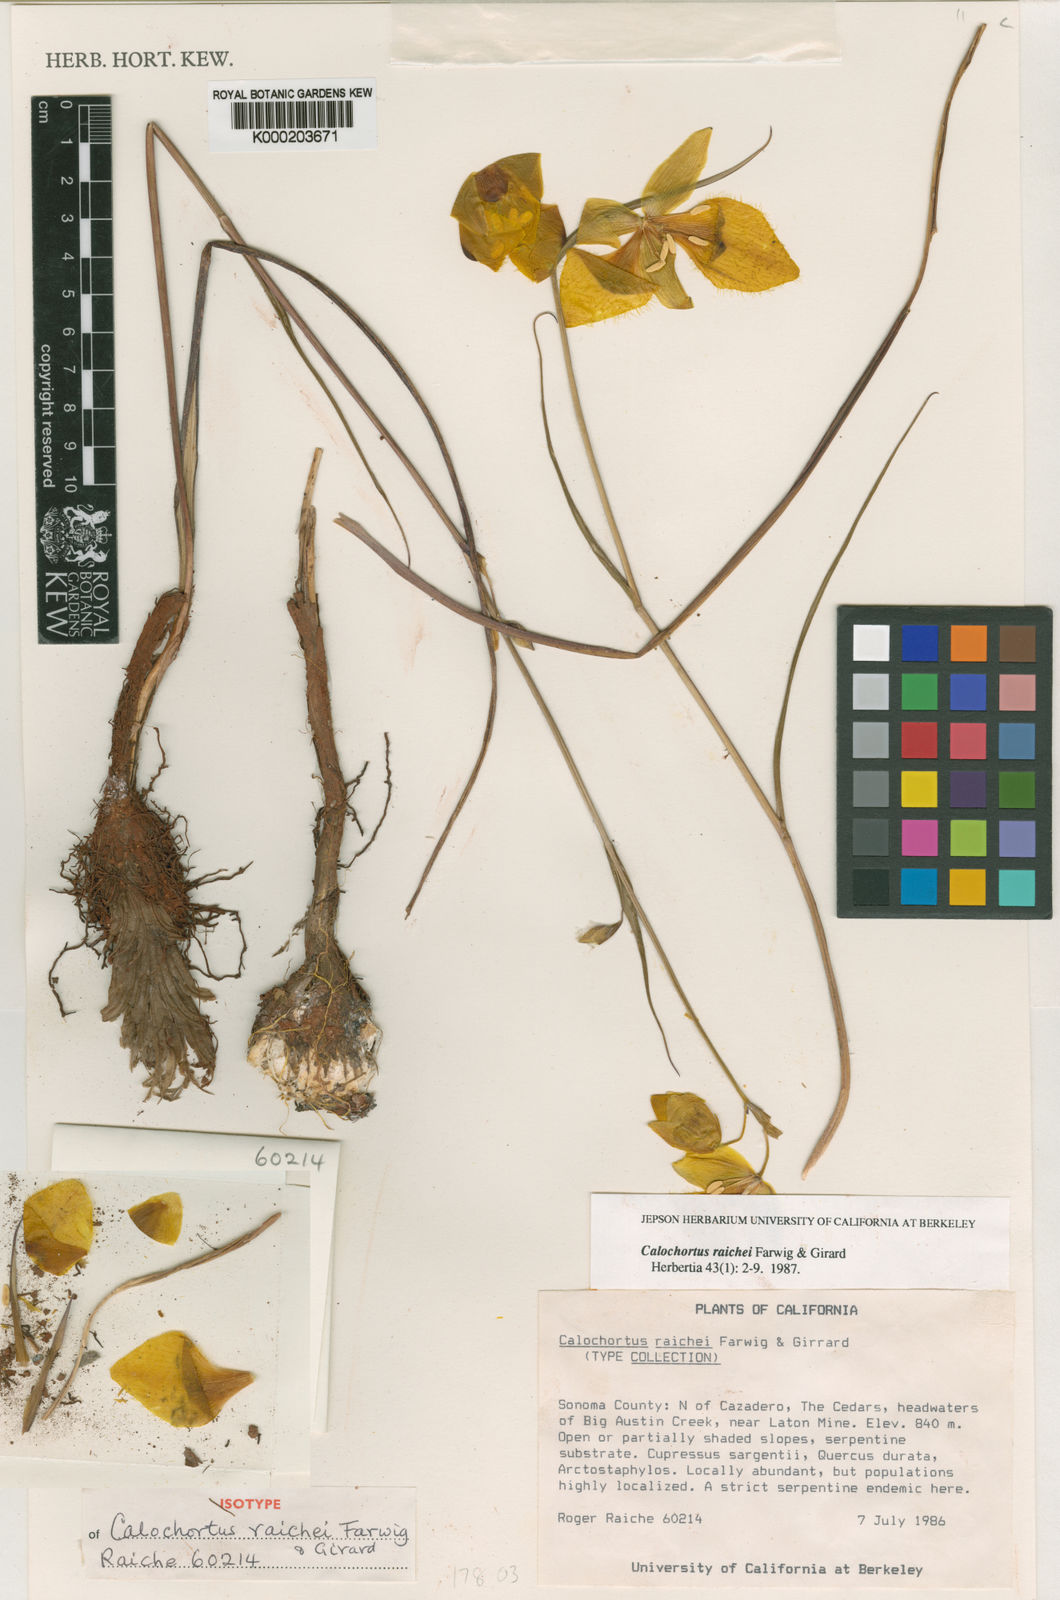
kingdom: Plantae
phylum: Tracheophyta
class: Liliopsida
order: Liliales
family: Liliaceae
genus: Calochortus
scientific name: Calochortus raichei
